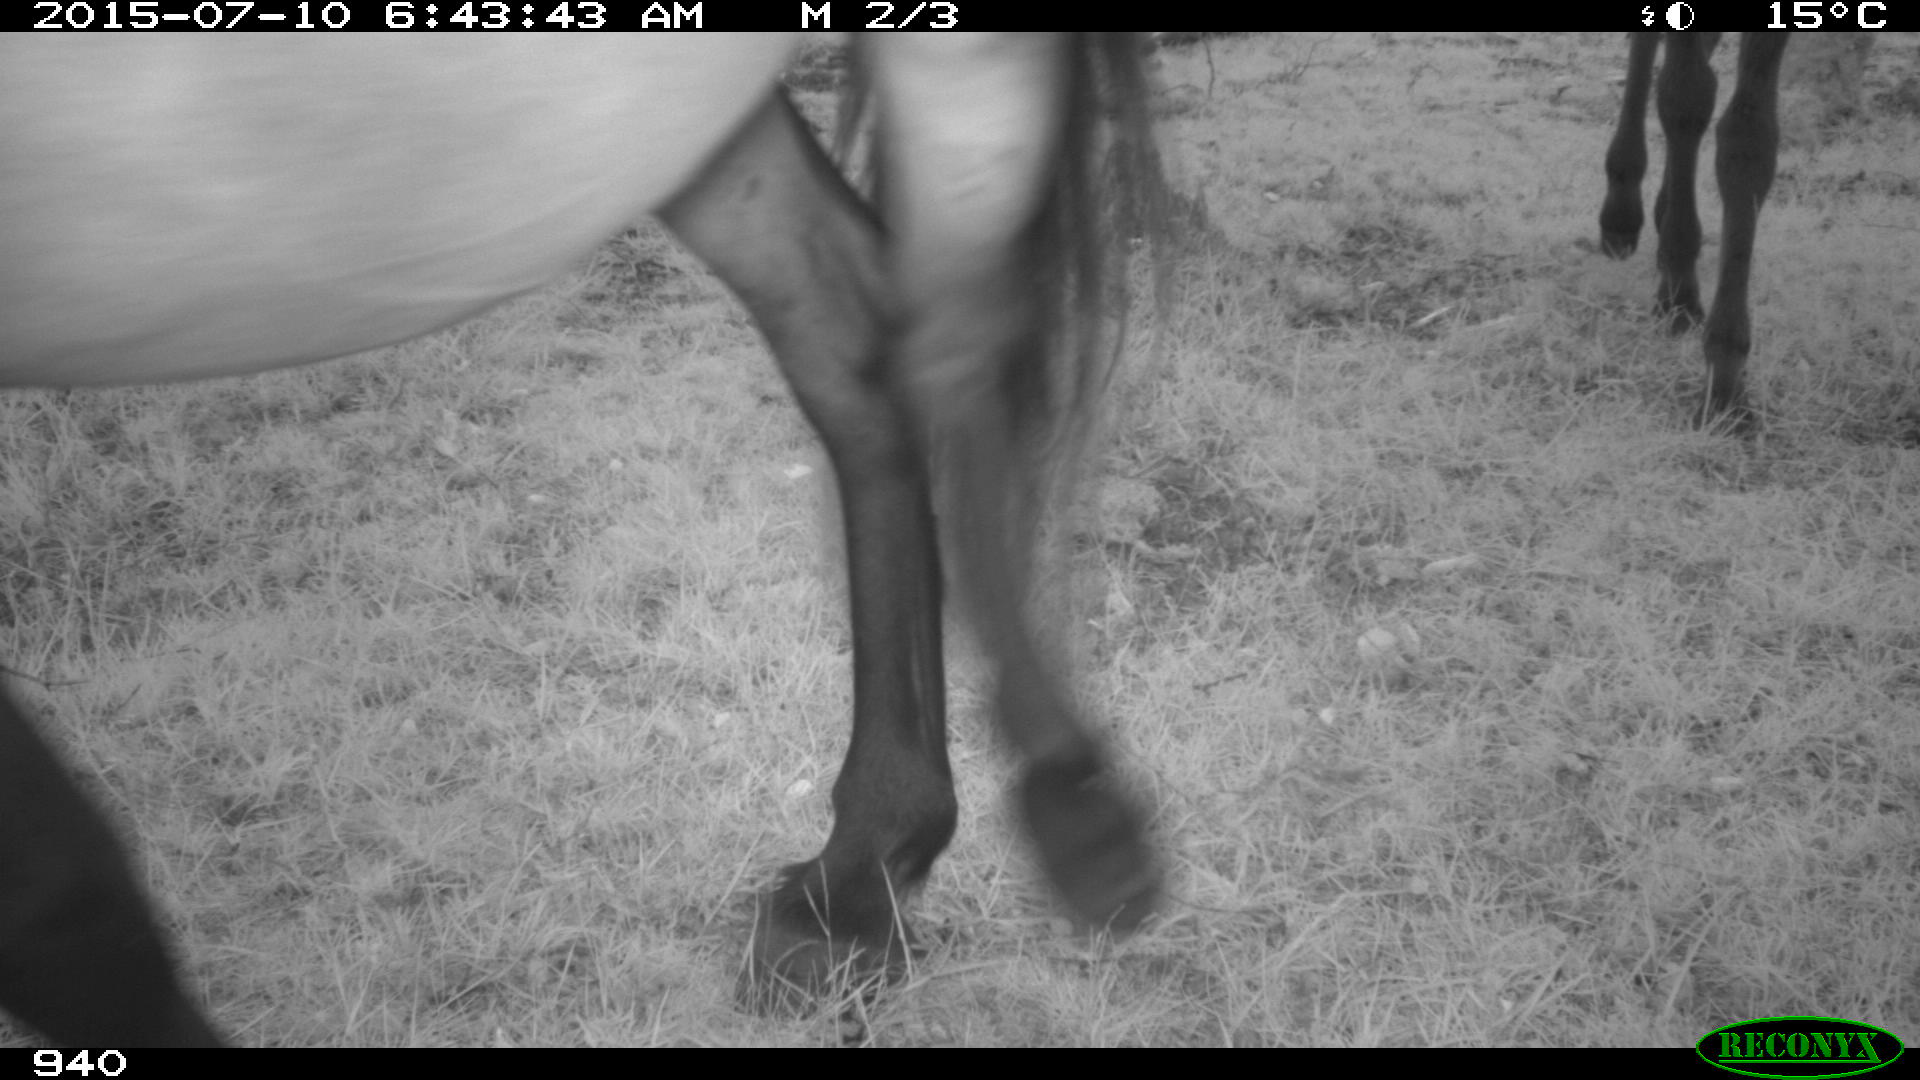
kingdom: Animalia
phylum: Chordata
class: Mammalia
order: Perissodactyla
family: Equidae
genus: Equus
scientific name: Equus caballus
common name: Horse
